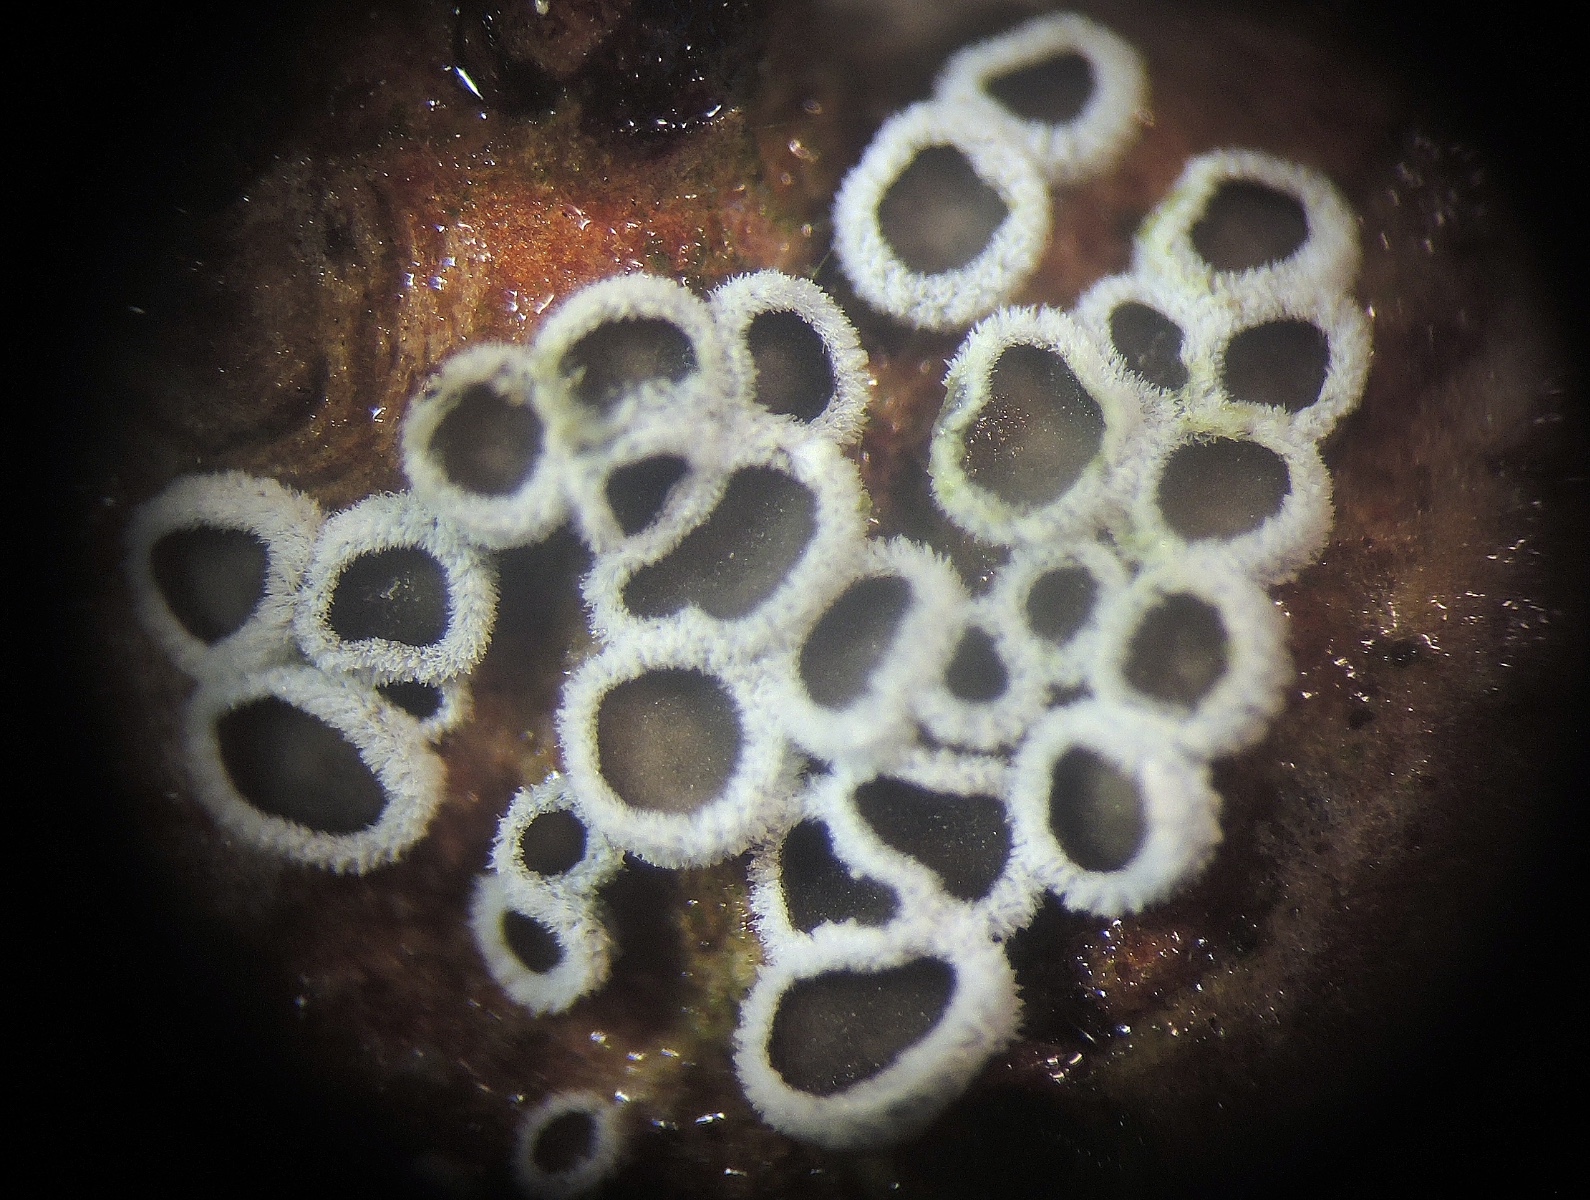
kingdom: Fungi
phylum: Basidiomycota
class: Agaricomycetes
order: Agaricales
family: Niaceae
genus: Lachnella
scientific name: Lachnella alboviolascens
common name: grå frynserede
